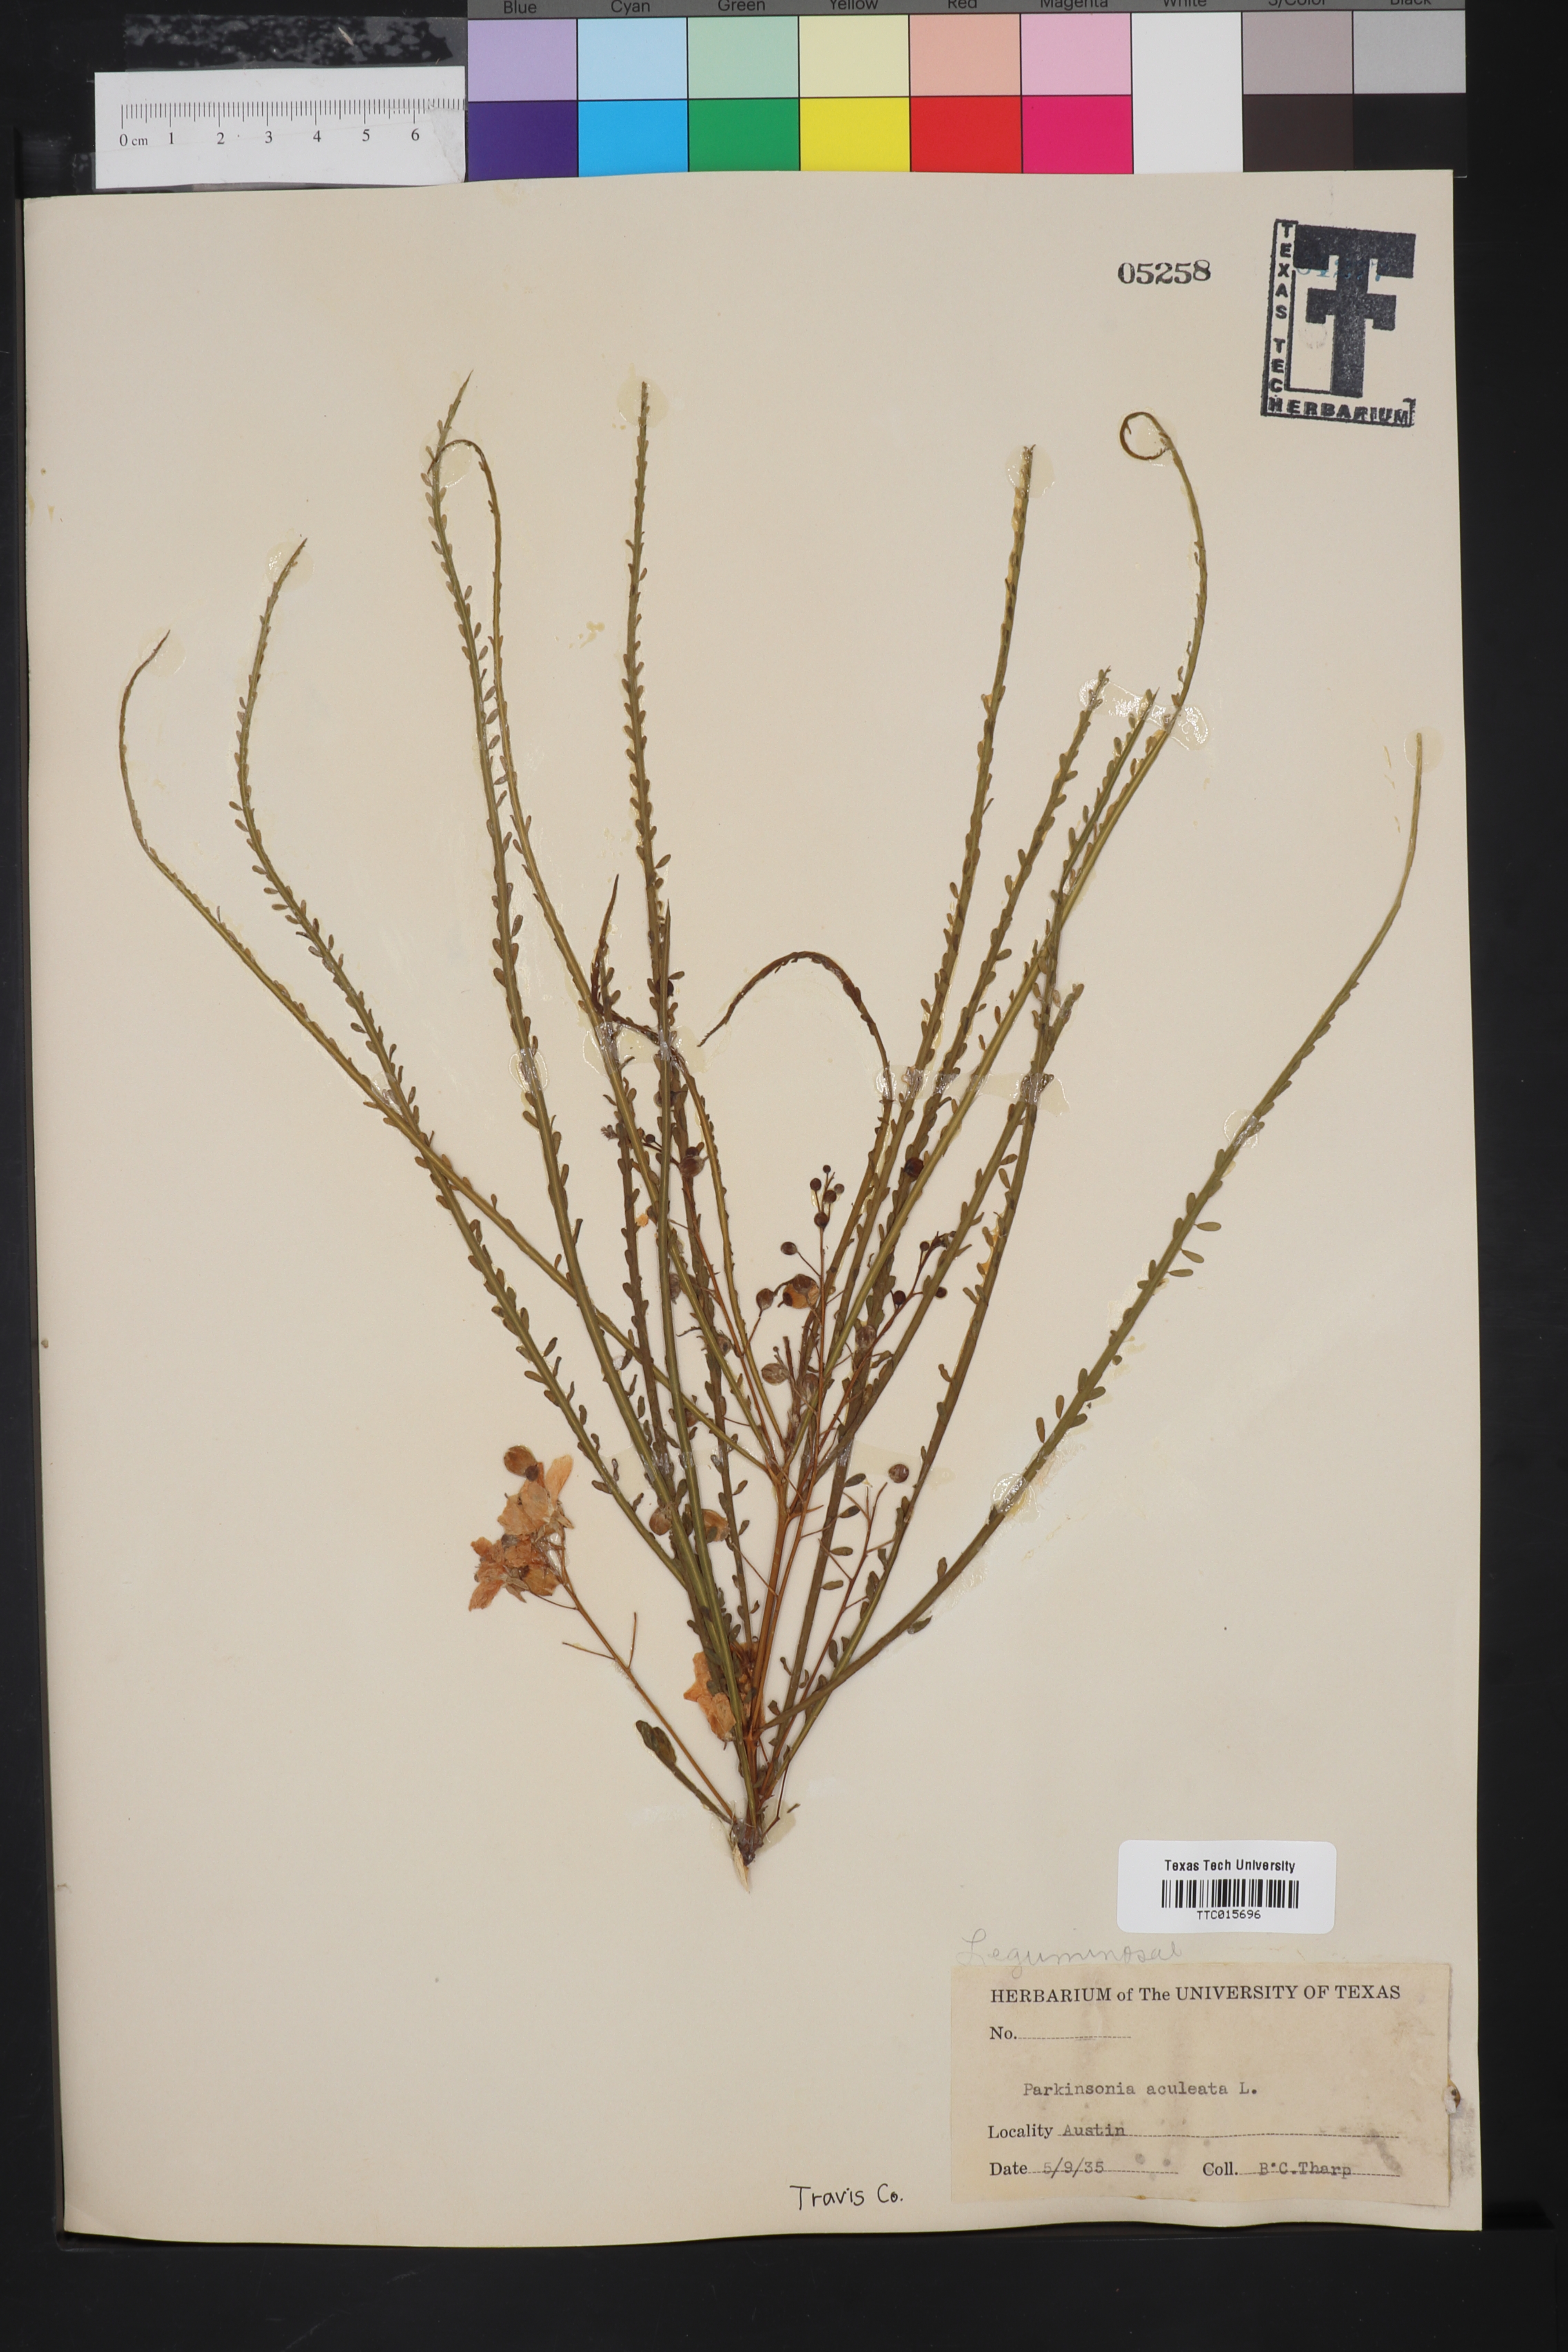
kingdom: Plantae
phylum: Tracheophyta
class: Magnoliopsida
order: Fabales
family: Fabaceae
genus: Parkinsonia
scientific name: Parkinsonia aculeata
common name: Jerusalem thorn
